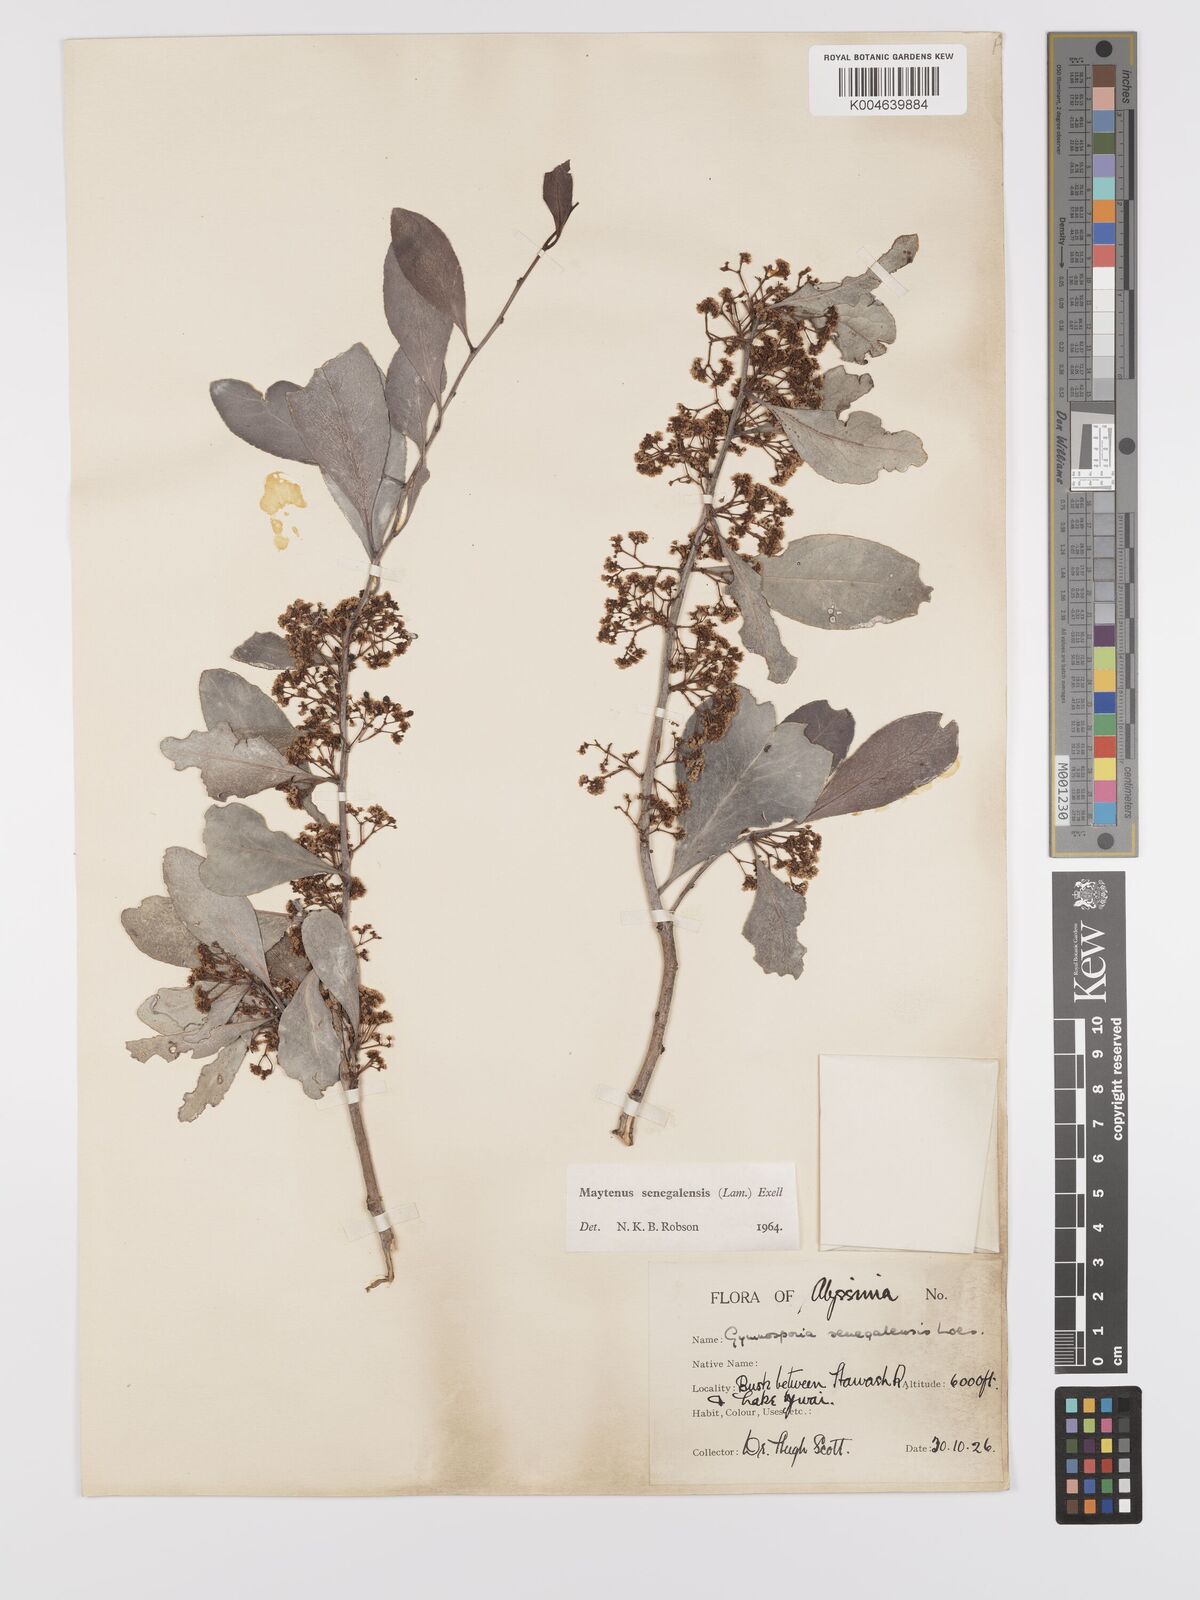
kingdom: Plantae
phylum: Tracheophyta
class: Magnoliopsida
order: Celastrales
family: Celastraceae
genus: Gymnosporia
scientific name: Gymnosporia senegalensis
